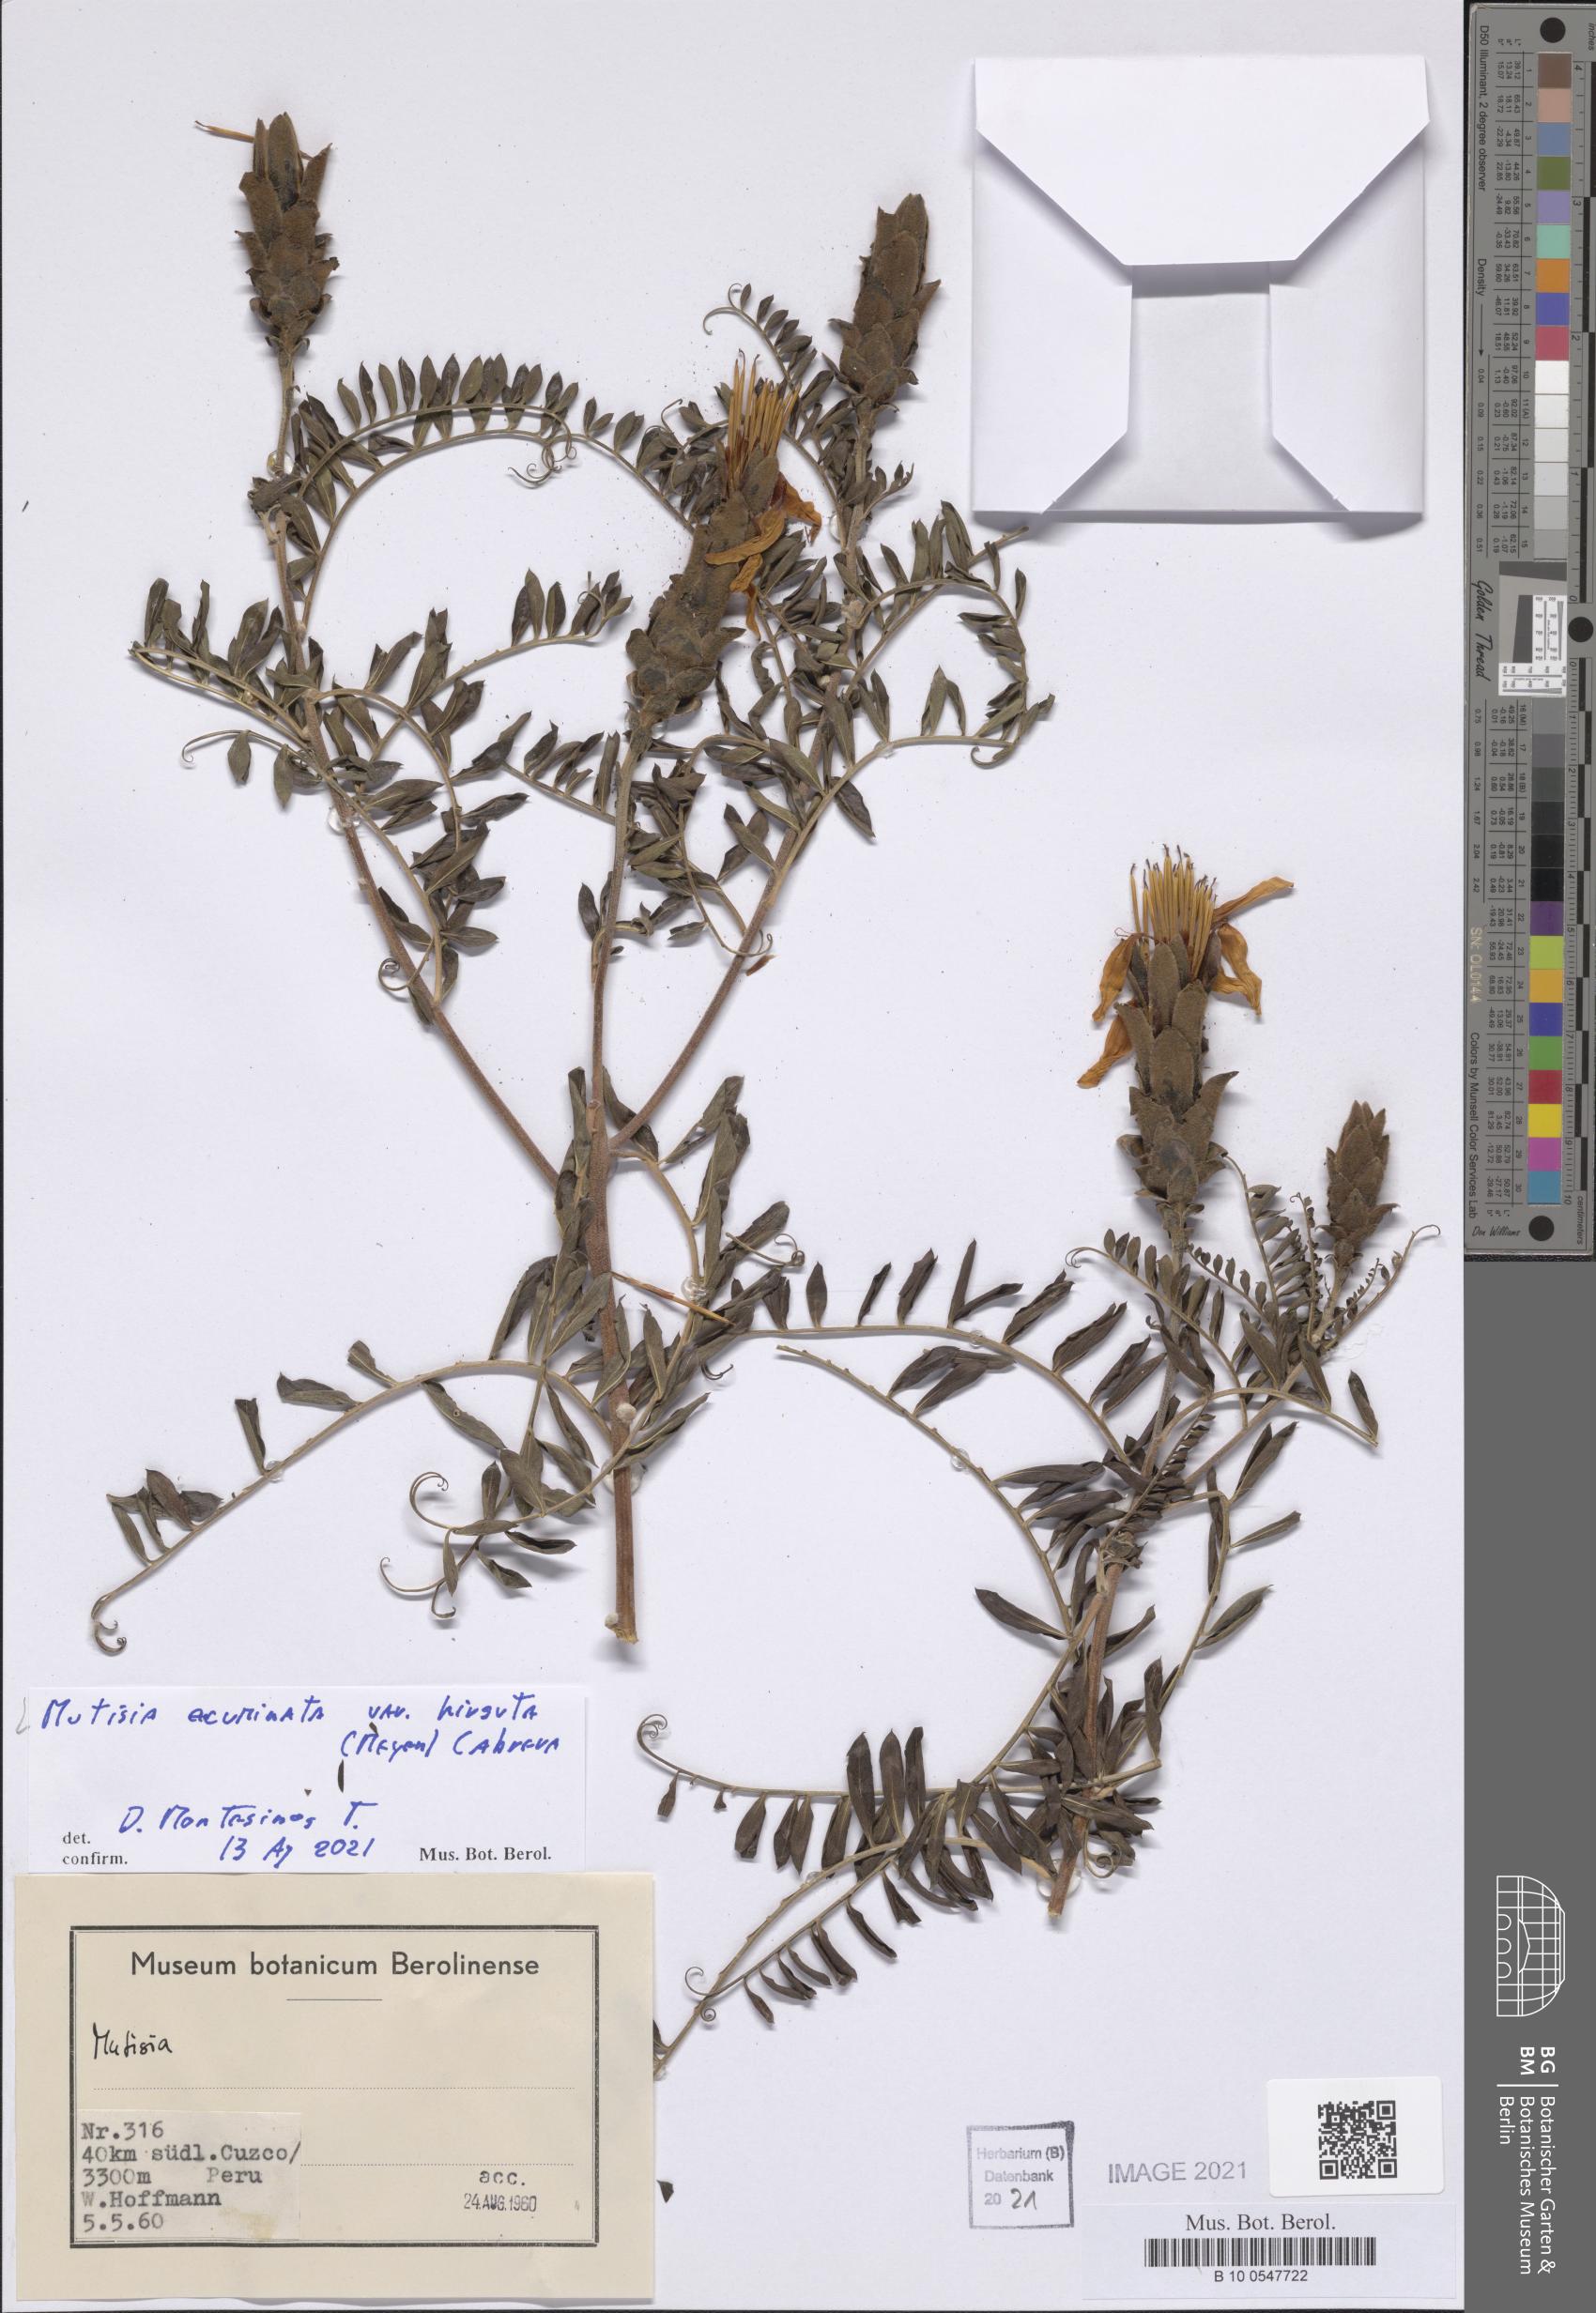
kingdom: Plantae
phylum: Tracheophyta
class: Magnoliopsida
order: Asterales
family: Asteraceae
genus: Mutisia
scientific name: Mutisia acuminata
